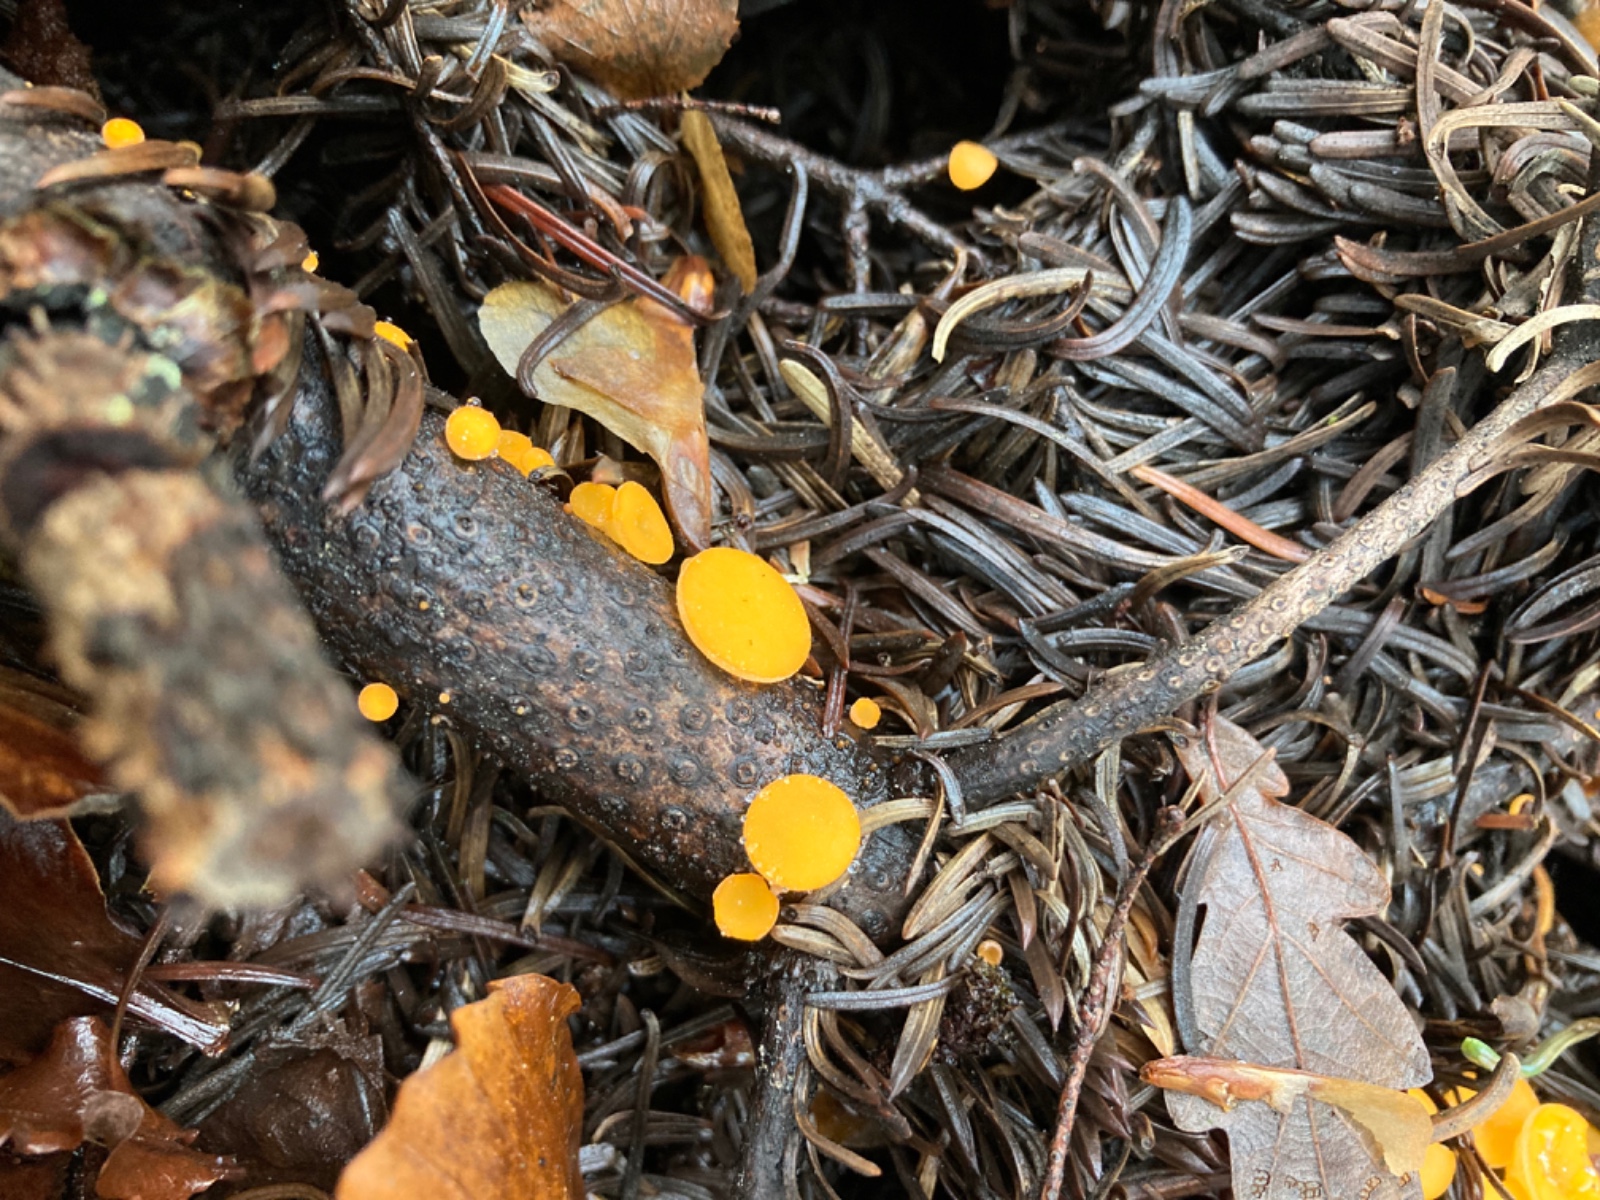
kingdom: Fungi
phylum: Ascomycota
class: Pezizomycetes
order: Pezizales
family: Sarcoscyphaceae
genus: Pithya
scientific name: Pithya vulgaris
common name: stor dukatbæger
